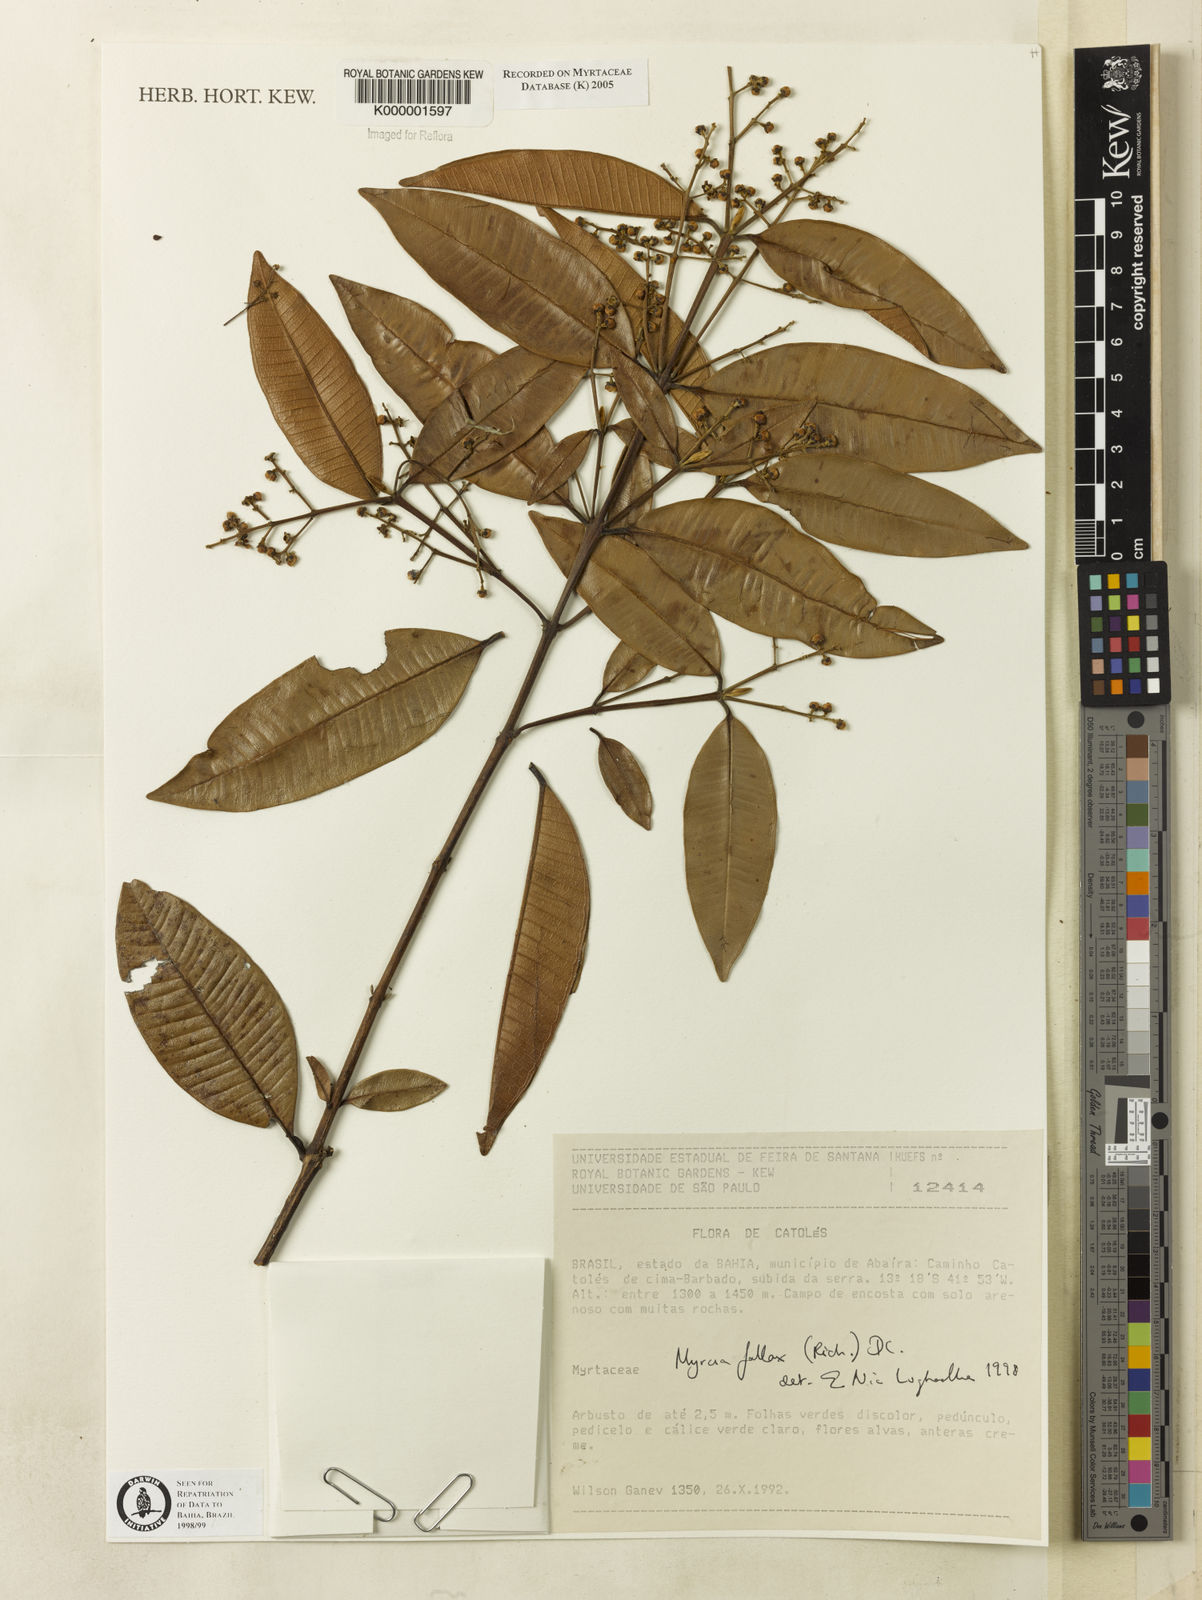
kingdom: Plantae
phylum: Tracheophyta
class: Magnoliopsida
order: Myrtales
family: Myrtaceae
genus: Myrcia
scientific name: Myrcia splendens
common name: Surinam cherry
